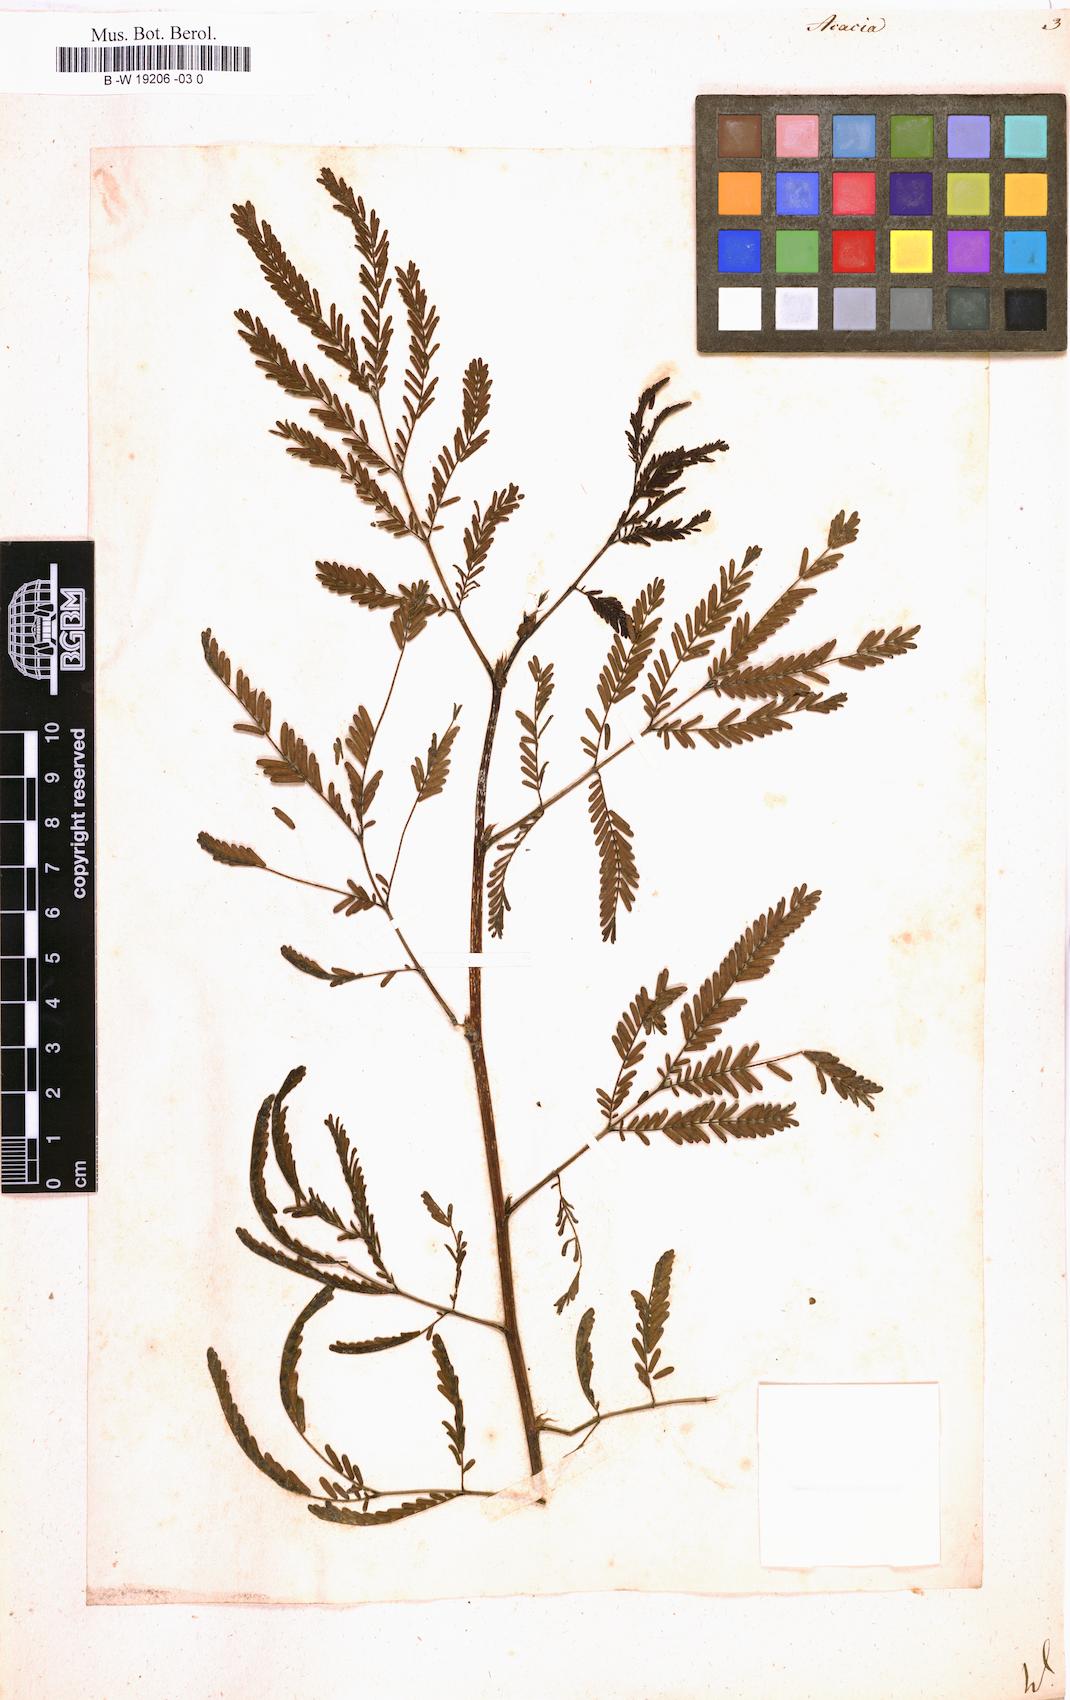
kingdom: Plantae
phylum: Tracheophyta
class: Magnoliopsida
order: Fabales
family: Fabaceae
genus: Acacia
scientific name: Acacia
